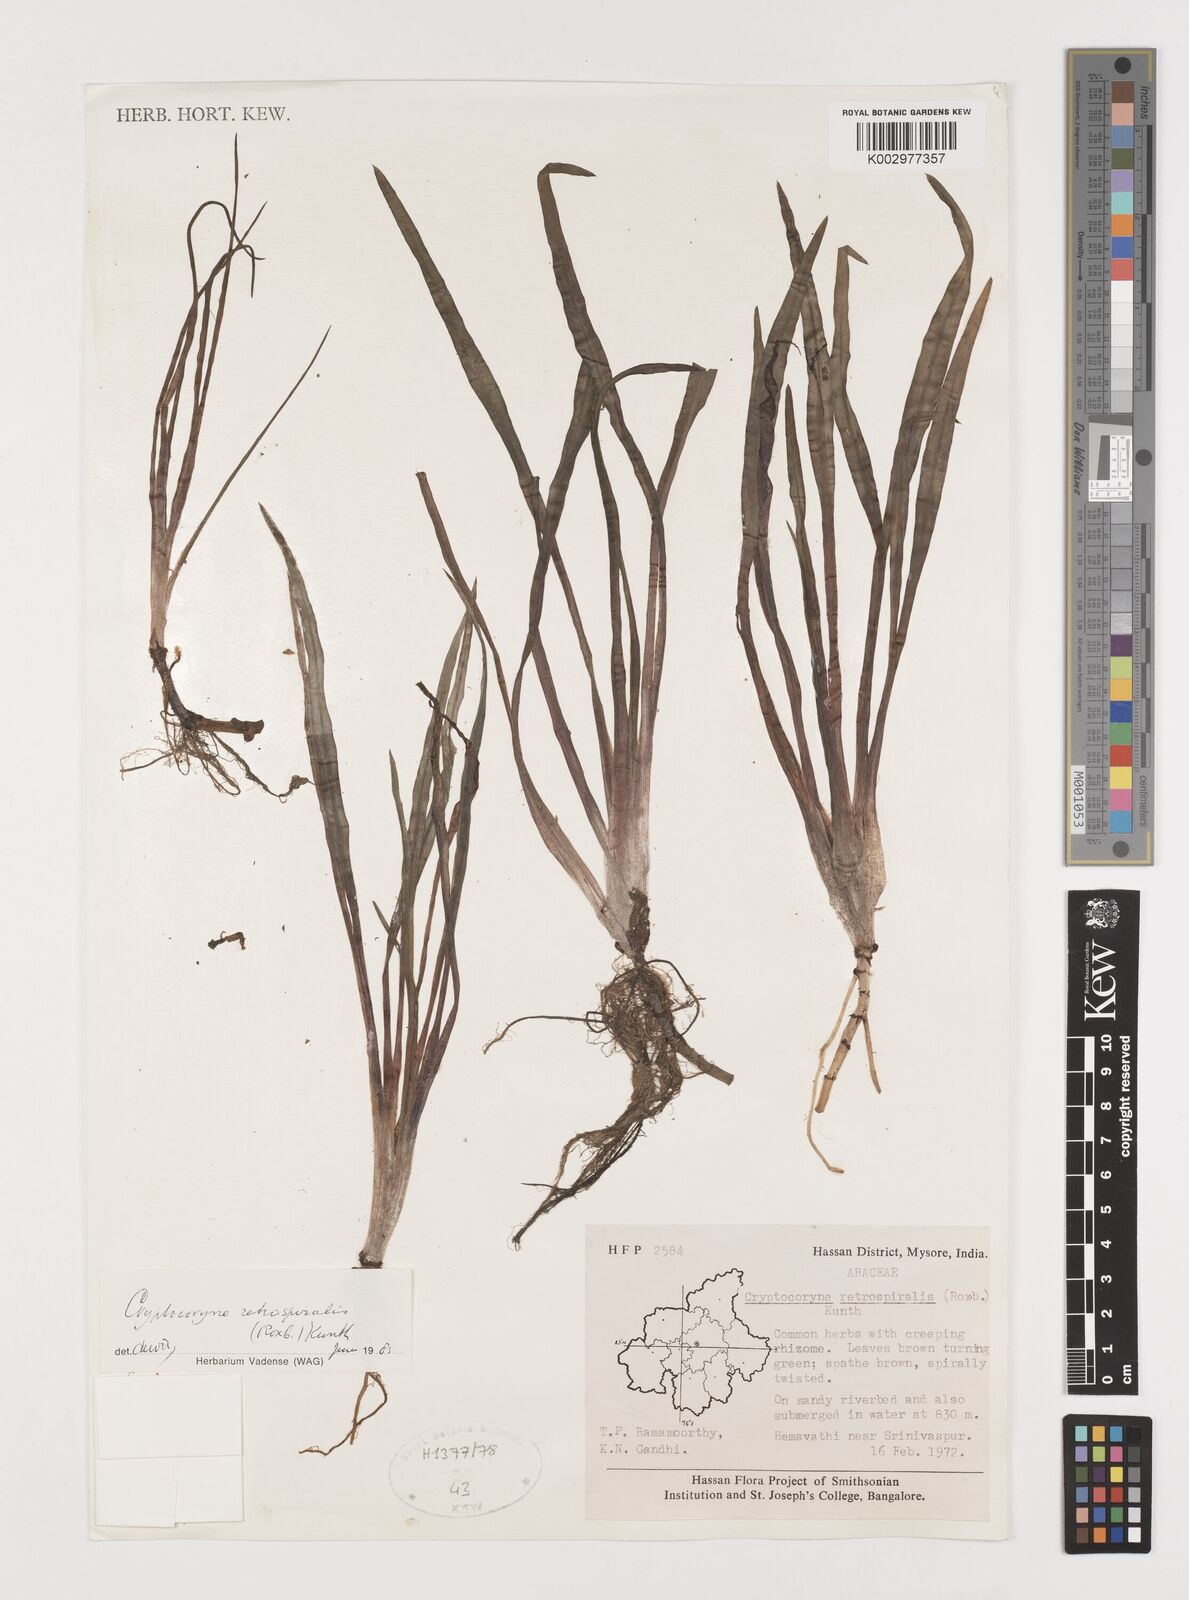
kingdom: Plantae
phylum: Tracheophyta
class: Liliopsida
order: Alismatales
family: Araceae
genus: Cryptocoryne
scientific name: Cryptocoryne retrospiralis
